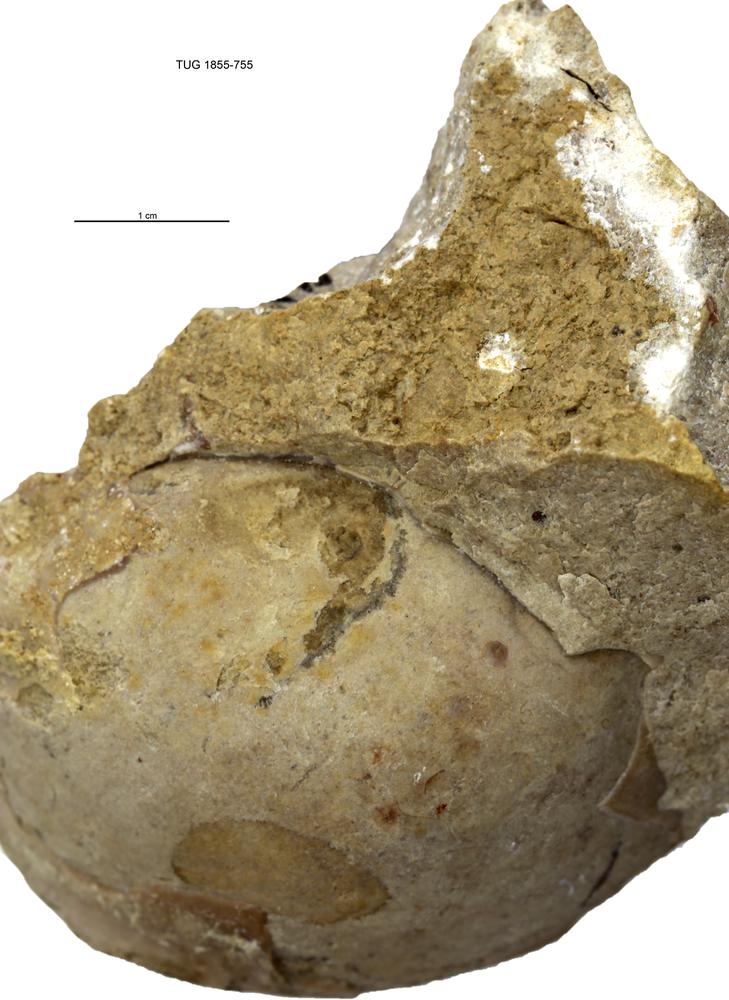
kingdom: Animalia
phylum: Arthropoda
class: Trilobita
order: Corynexochida
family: Illaenidae
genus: Parillaenus
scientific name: Parillaenus
